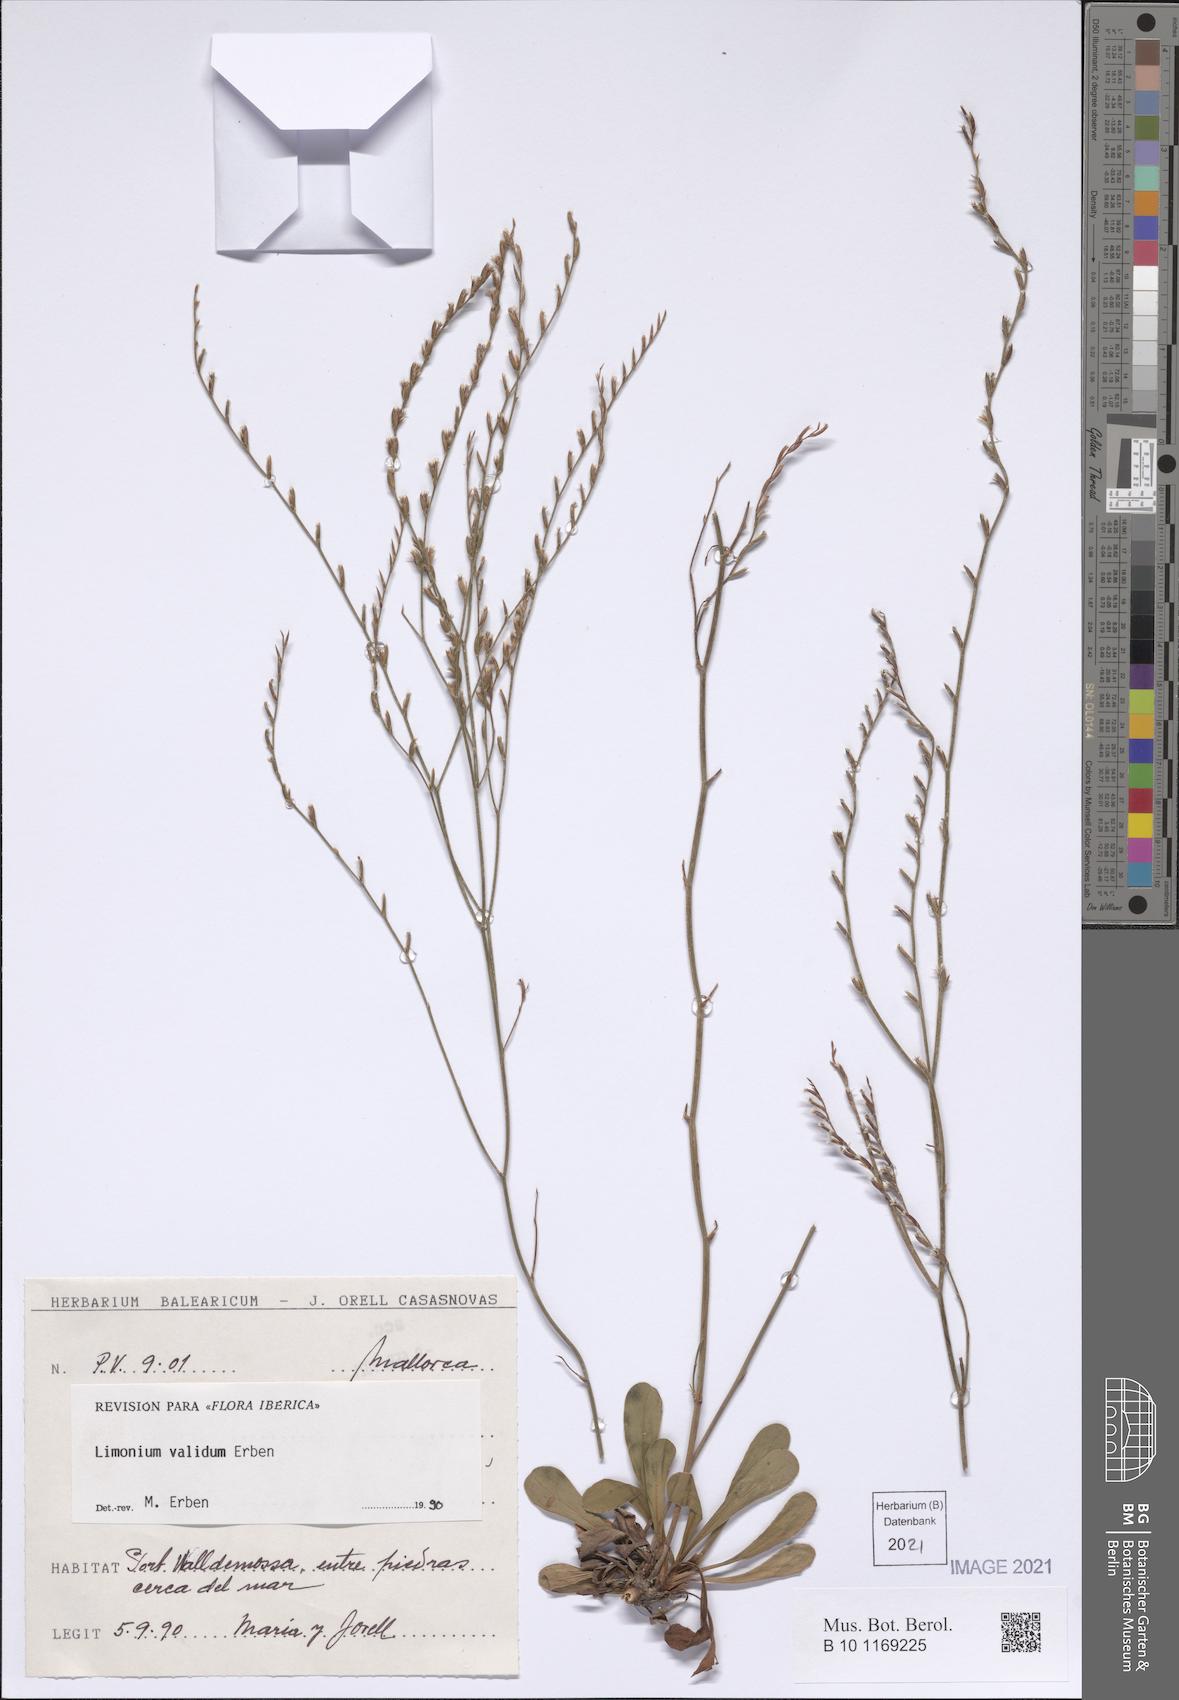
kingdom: Plantae
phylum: Tracheophyta
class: Magnoliopsida
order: Caryophyllales
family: Plumbaginaceae
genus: Limonium
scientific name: Limonium validum
